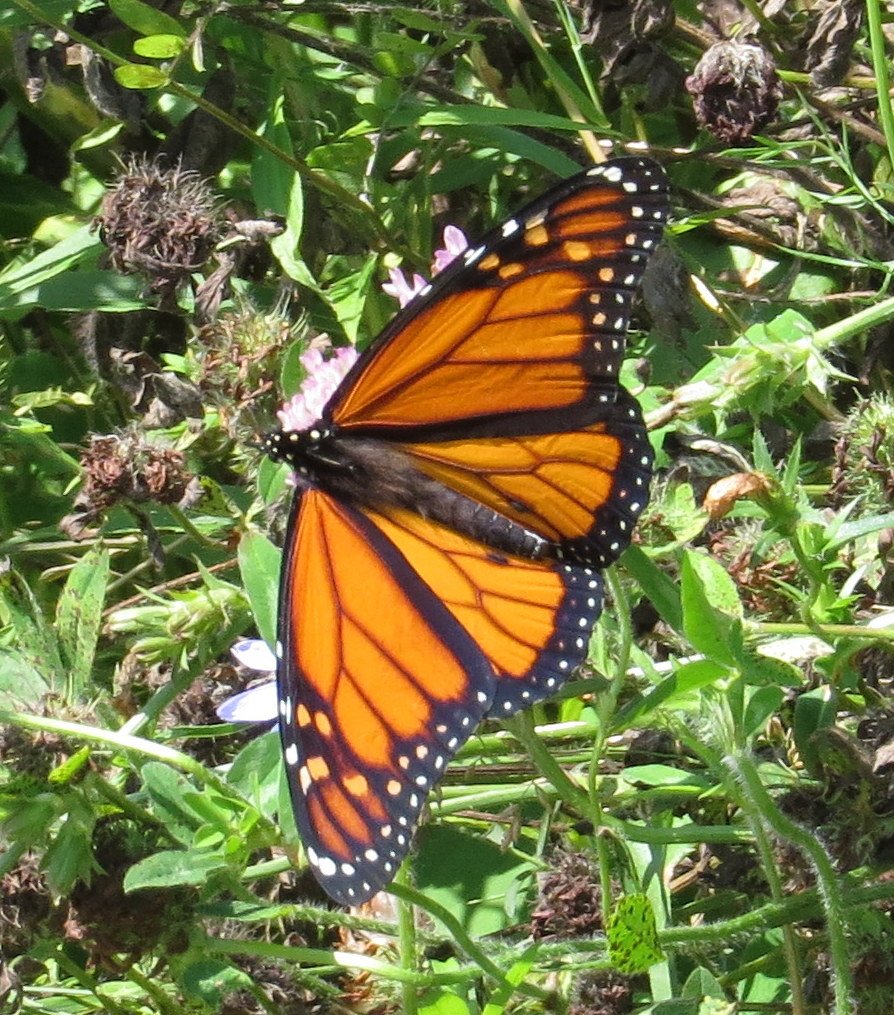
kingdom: Animalia
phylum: Arthropoda
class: Insecta
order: Lepidoptera
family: Nymphalidae
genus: Danaus
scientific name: Danaus plexippus
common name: Monarch
